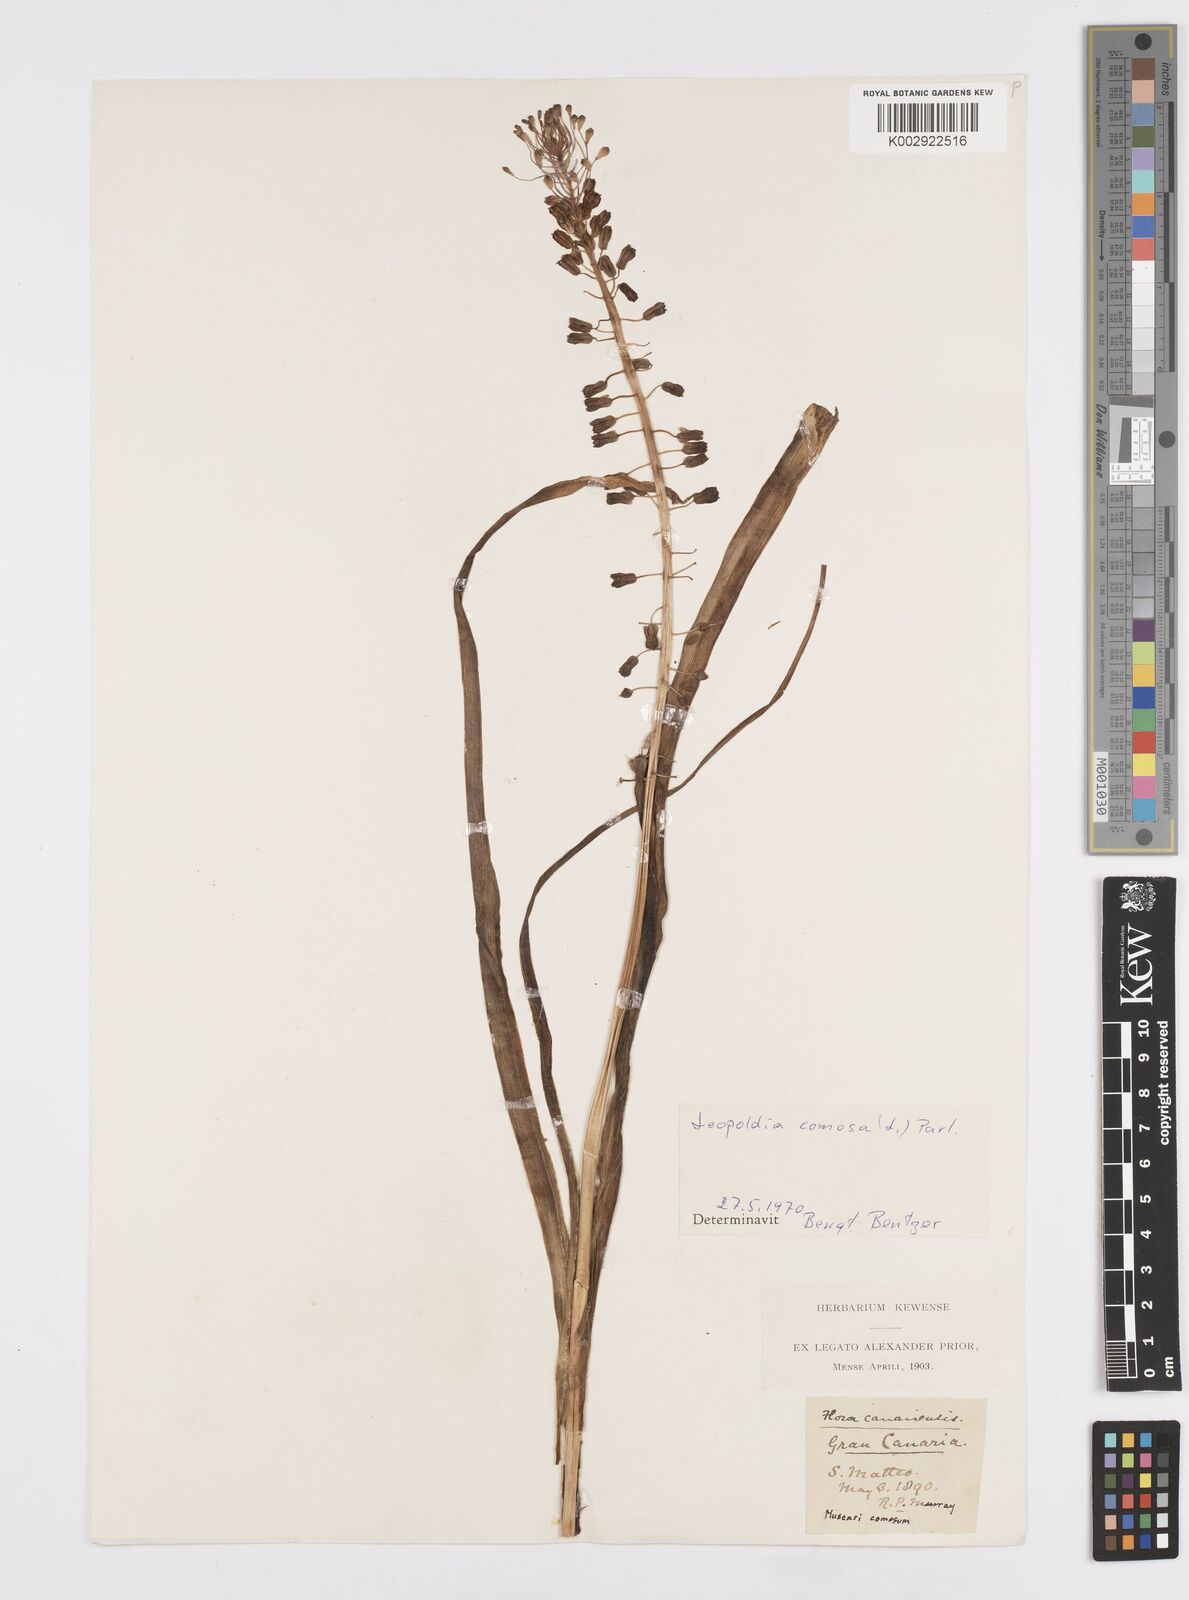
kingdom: Plantae
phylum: Tracheophyta
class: Liliopsida
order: Asparagales
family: Asparagaceae
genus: Muscari
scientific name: Muscari comosum
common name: Tassel hyacinth
